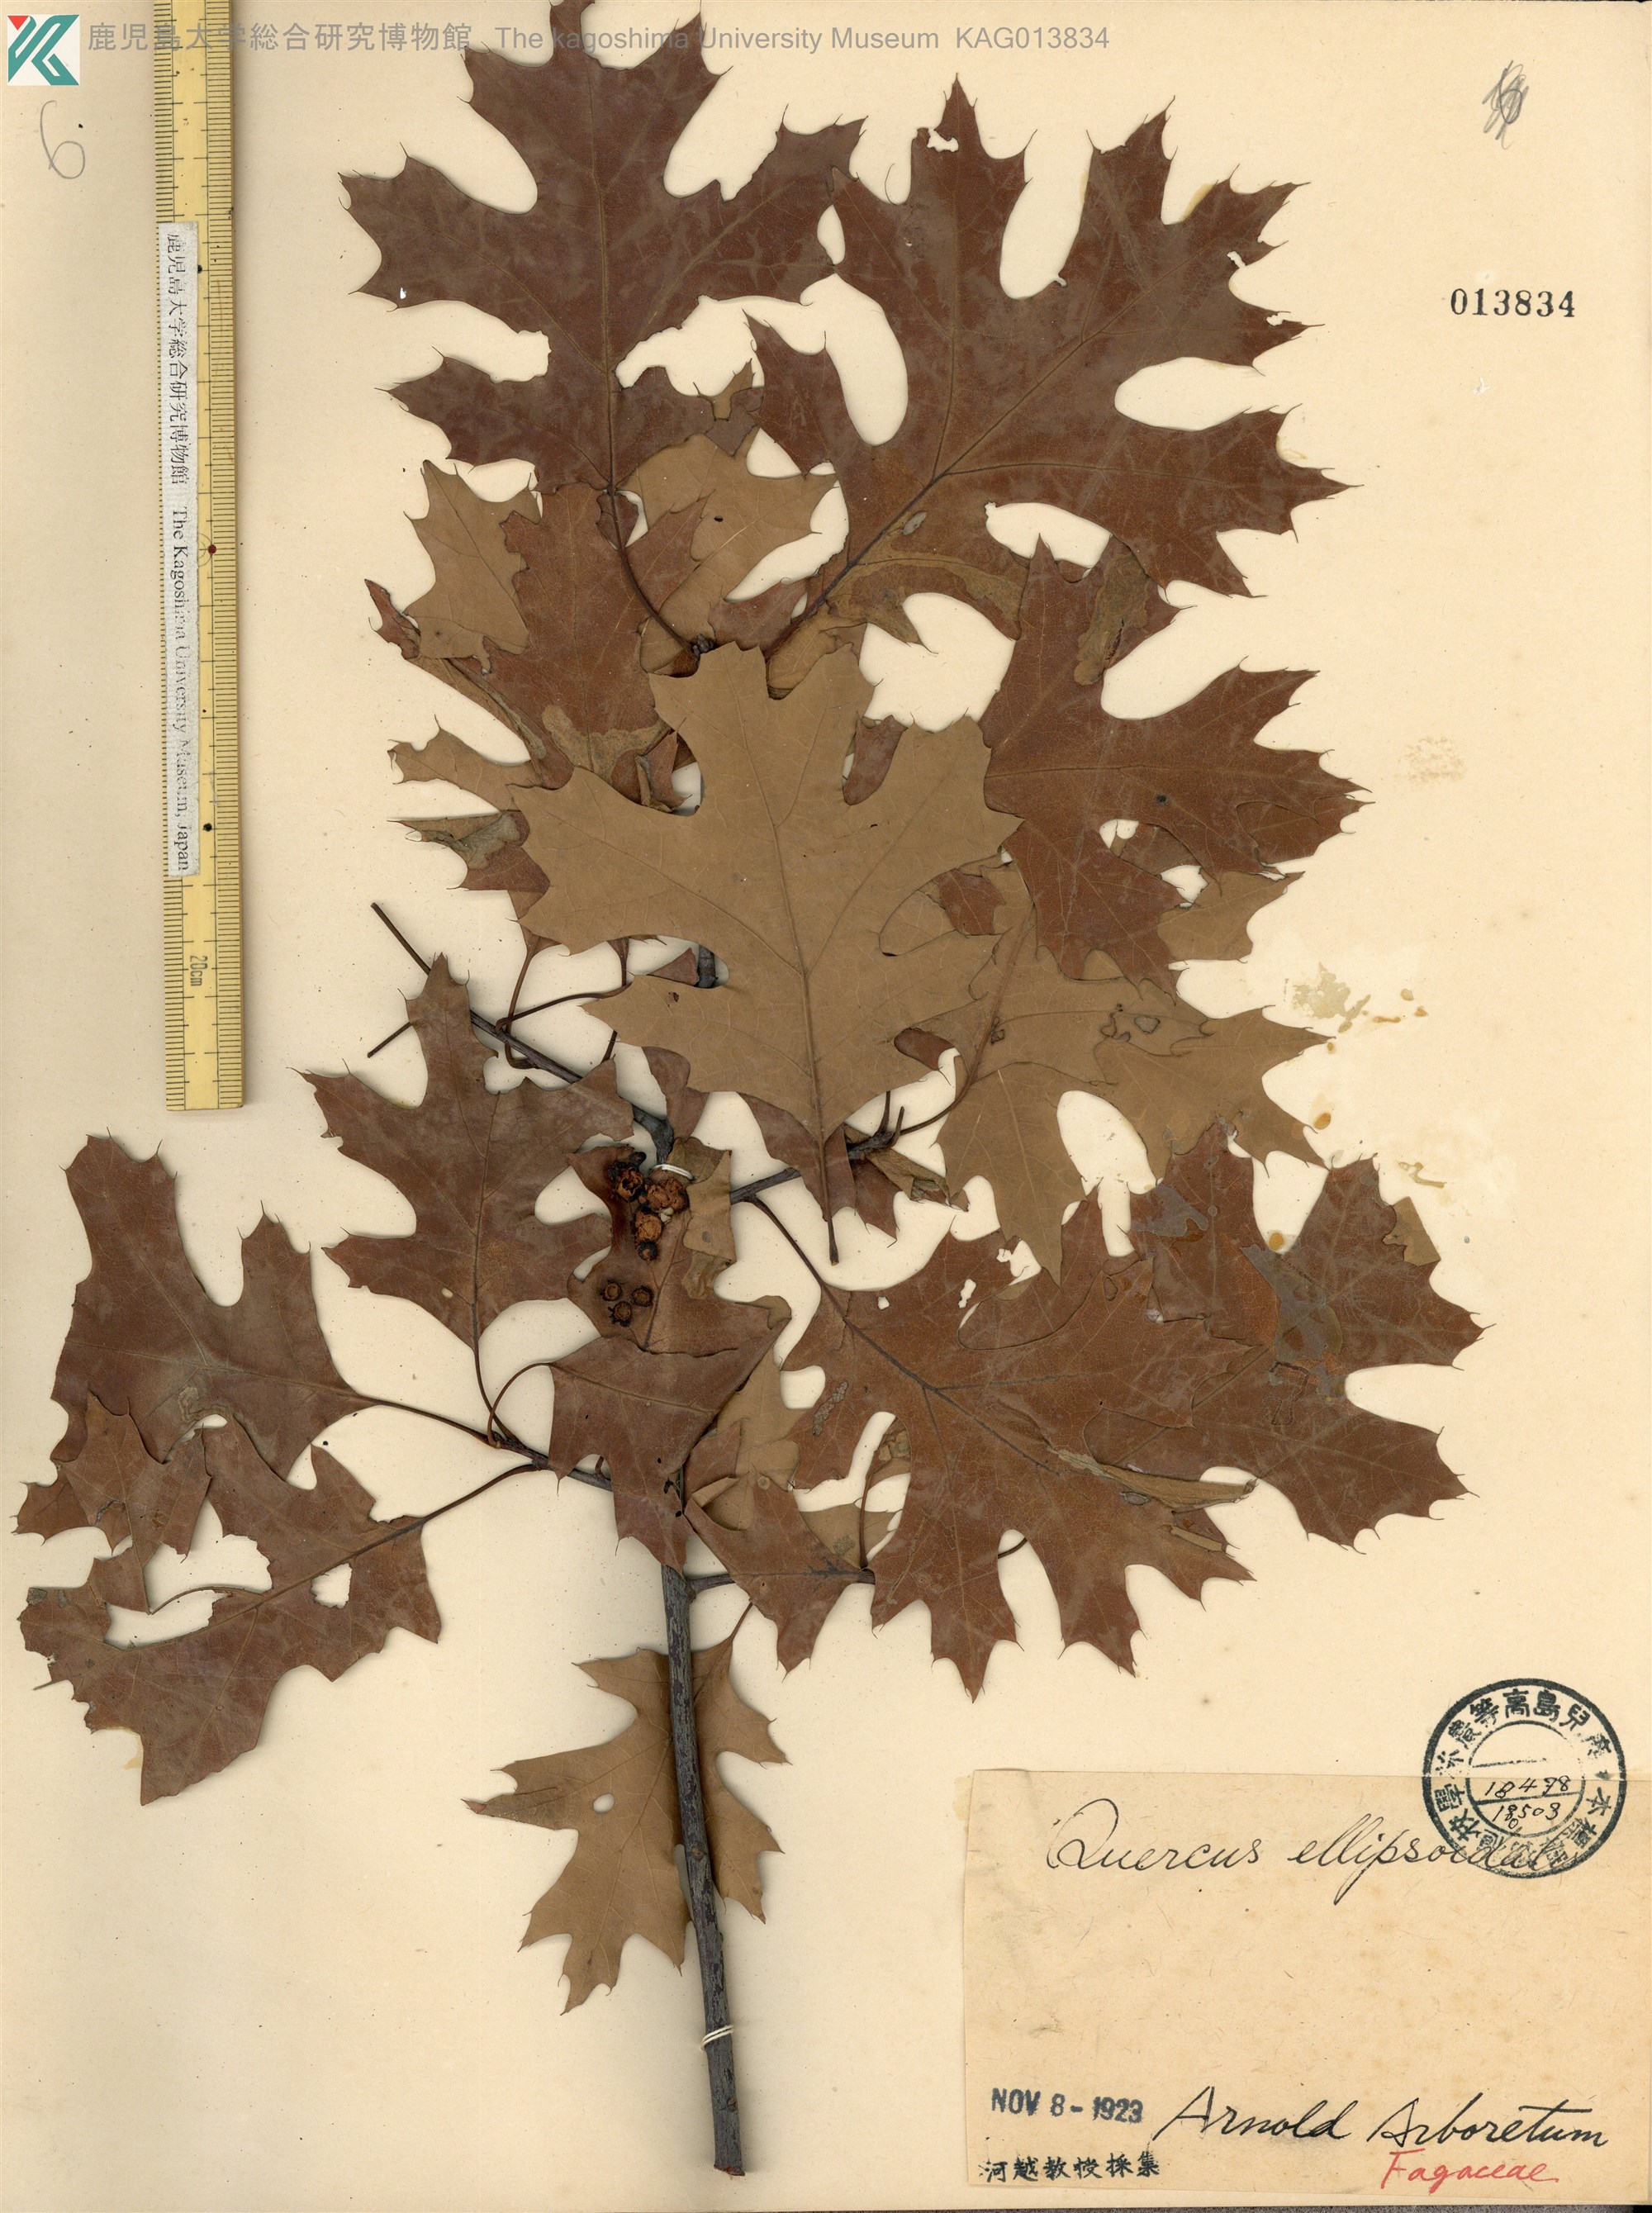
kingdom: Plantae
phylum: Tracheophyta
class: Magnoliopsida
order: Fagales
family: Fagaceae
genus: Quercus
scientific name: Quercus ellipsoidalis
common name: Hill's oak
